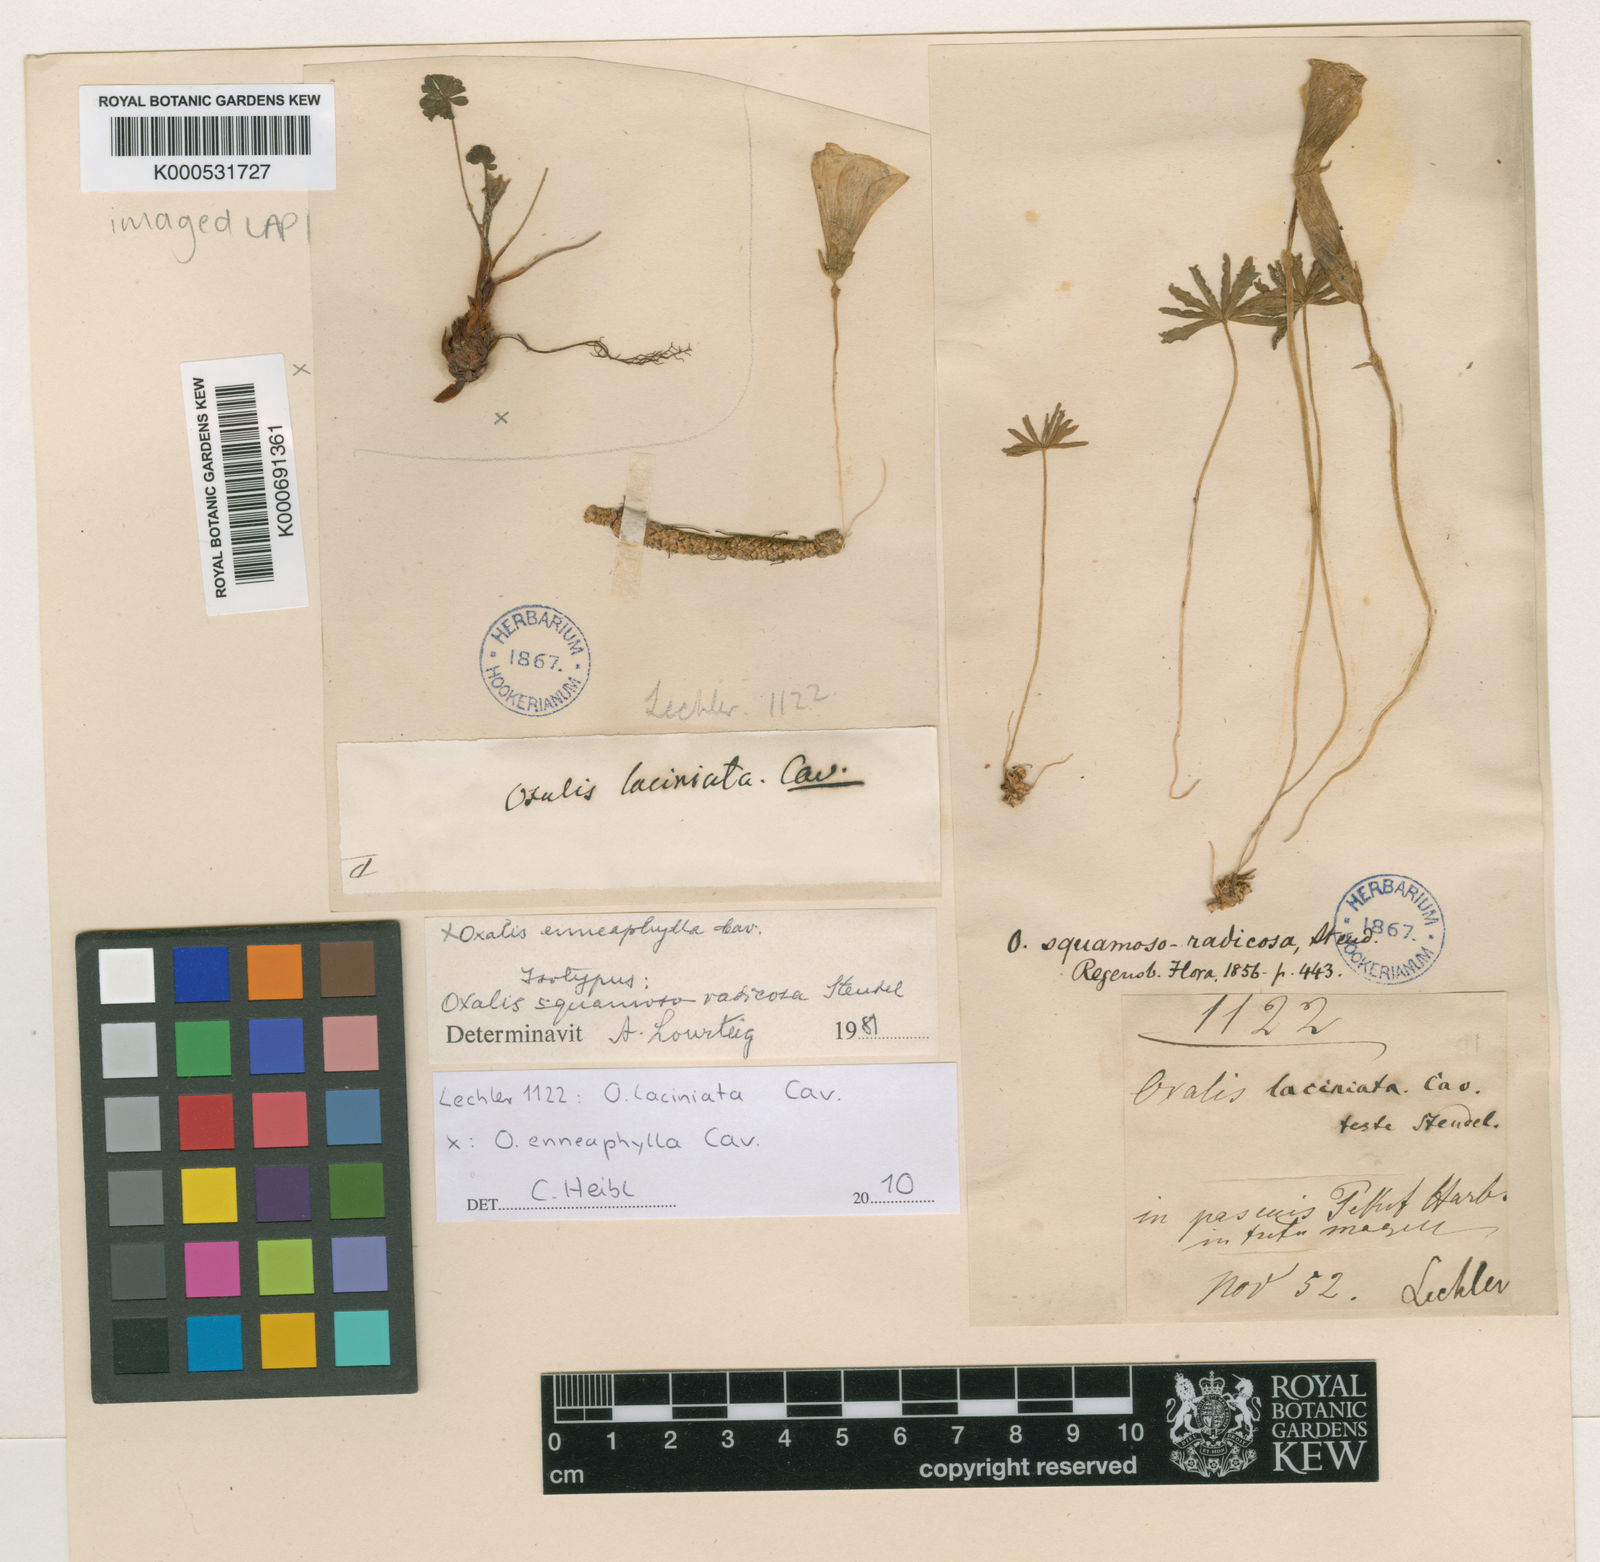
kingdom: Plantae
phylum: Tracheophyta
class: Magnoliopsida
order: Oxalidales
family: Oxalidaceae
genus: Oxalis
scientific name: Oxalis laciniata
